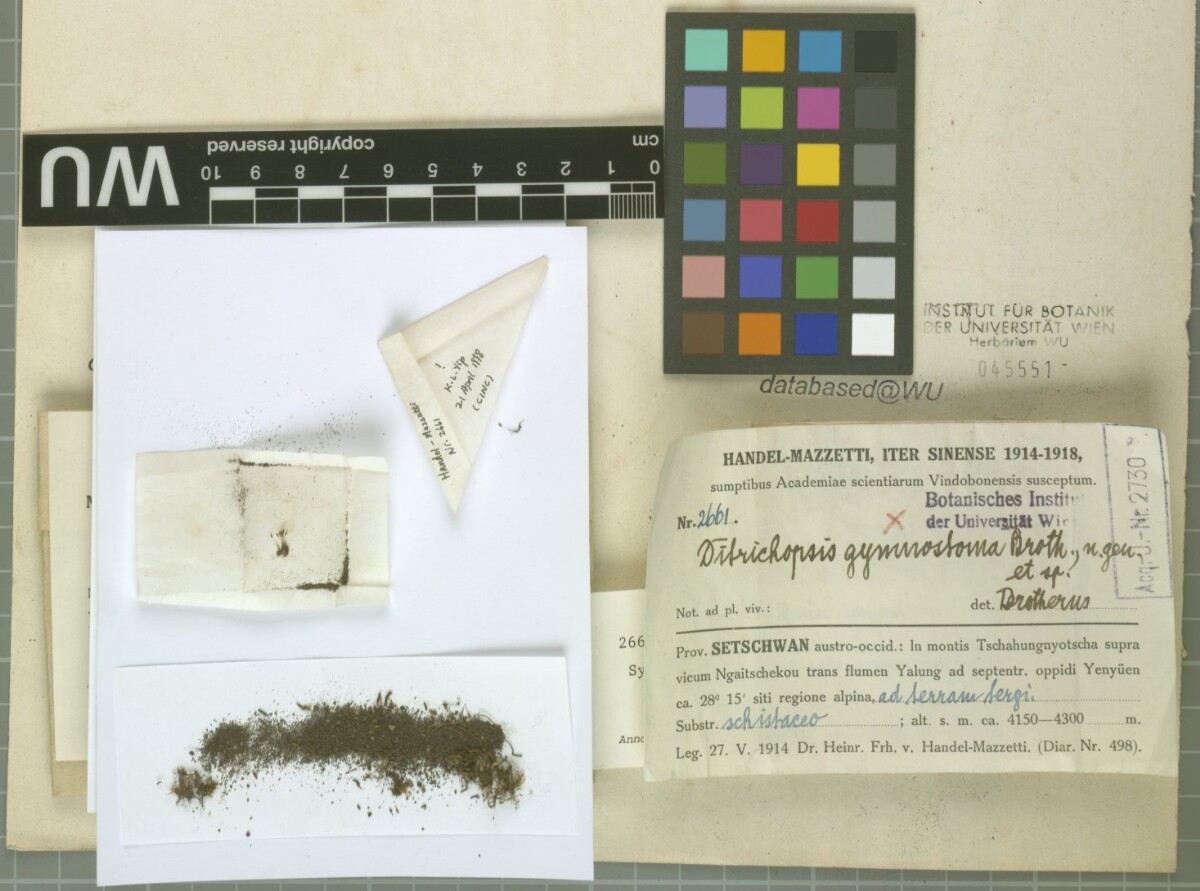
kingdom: Plantae
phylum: Bryophyta
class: Bryopsida
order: Dicranales
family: Ditrichaceae
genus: Ditrichopsis
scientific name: Ditrichopsis gymnostoma
